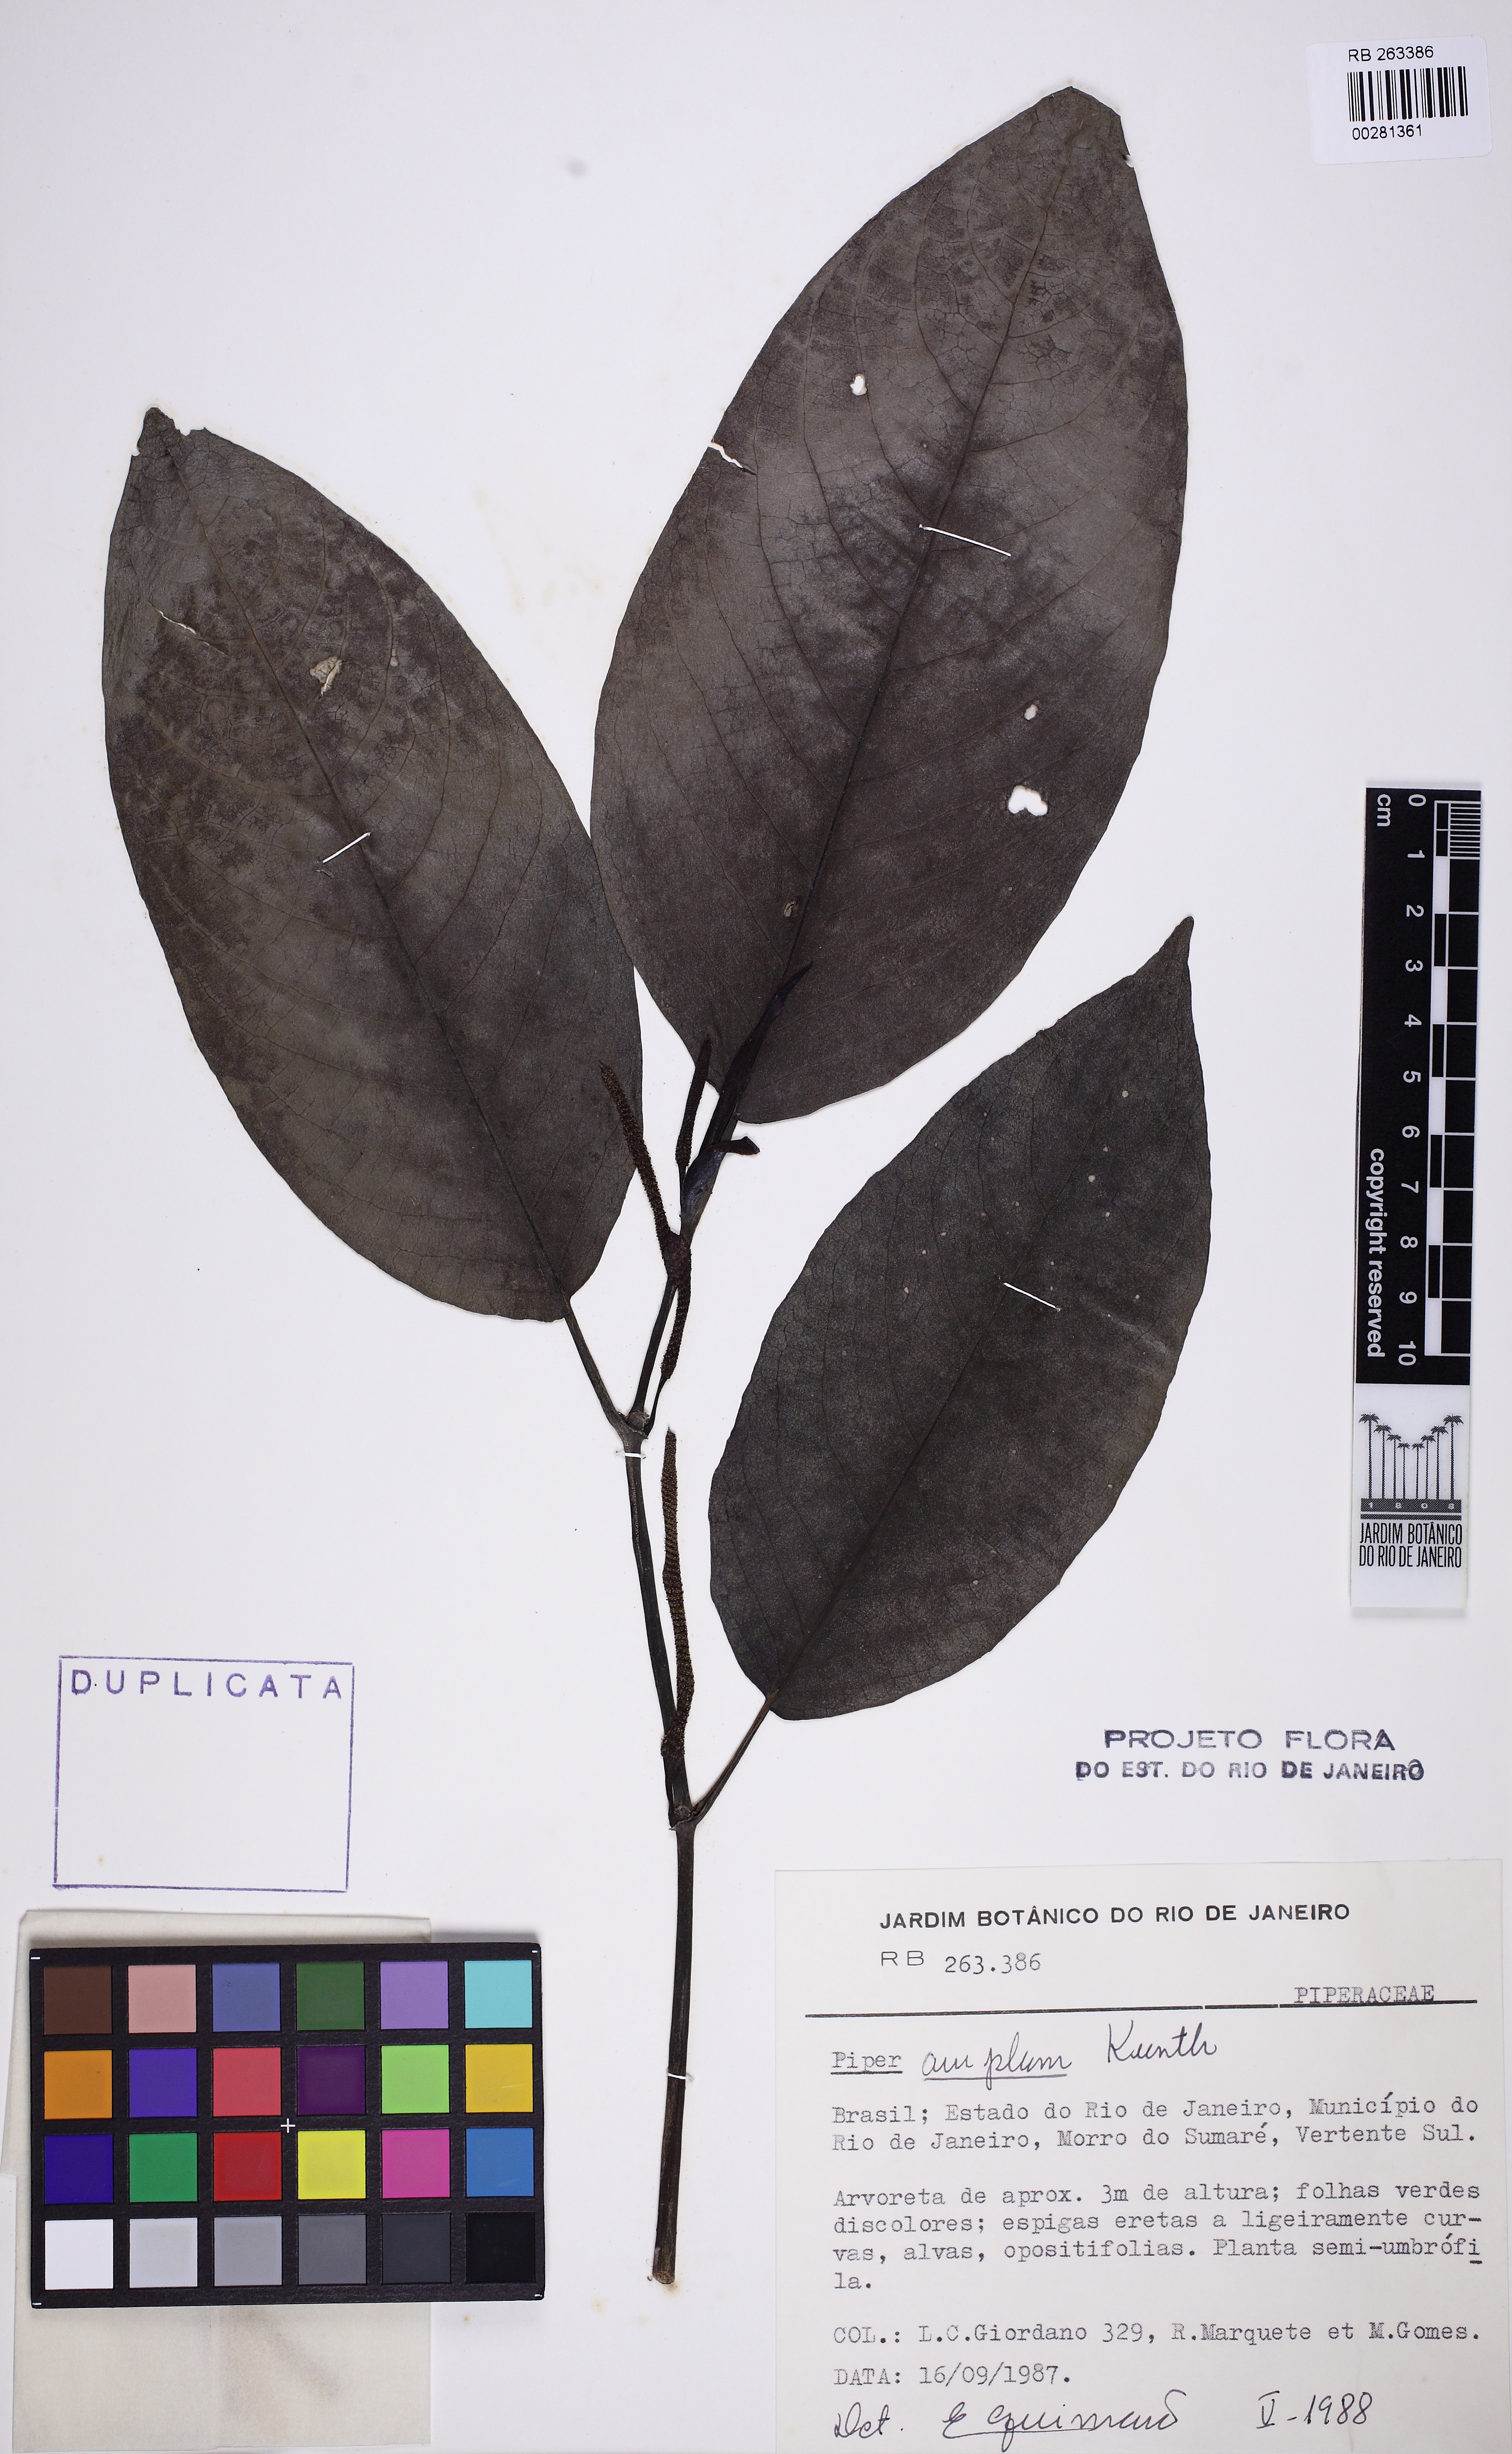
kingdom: Plantae
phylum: Tracheophyta
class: Magnoliopsida
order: Piperales
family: Piperaceae
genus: Piper
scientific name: Piper fluminense
